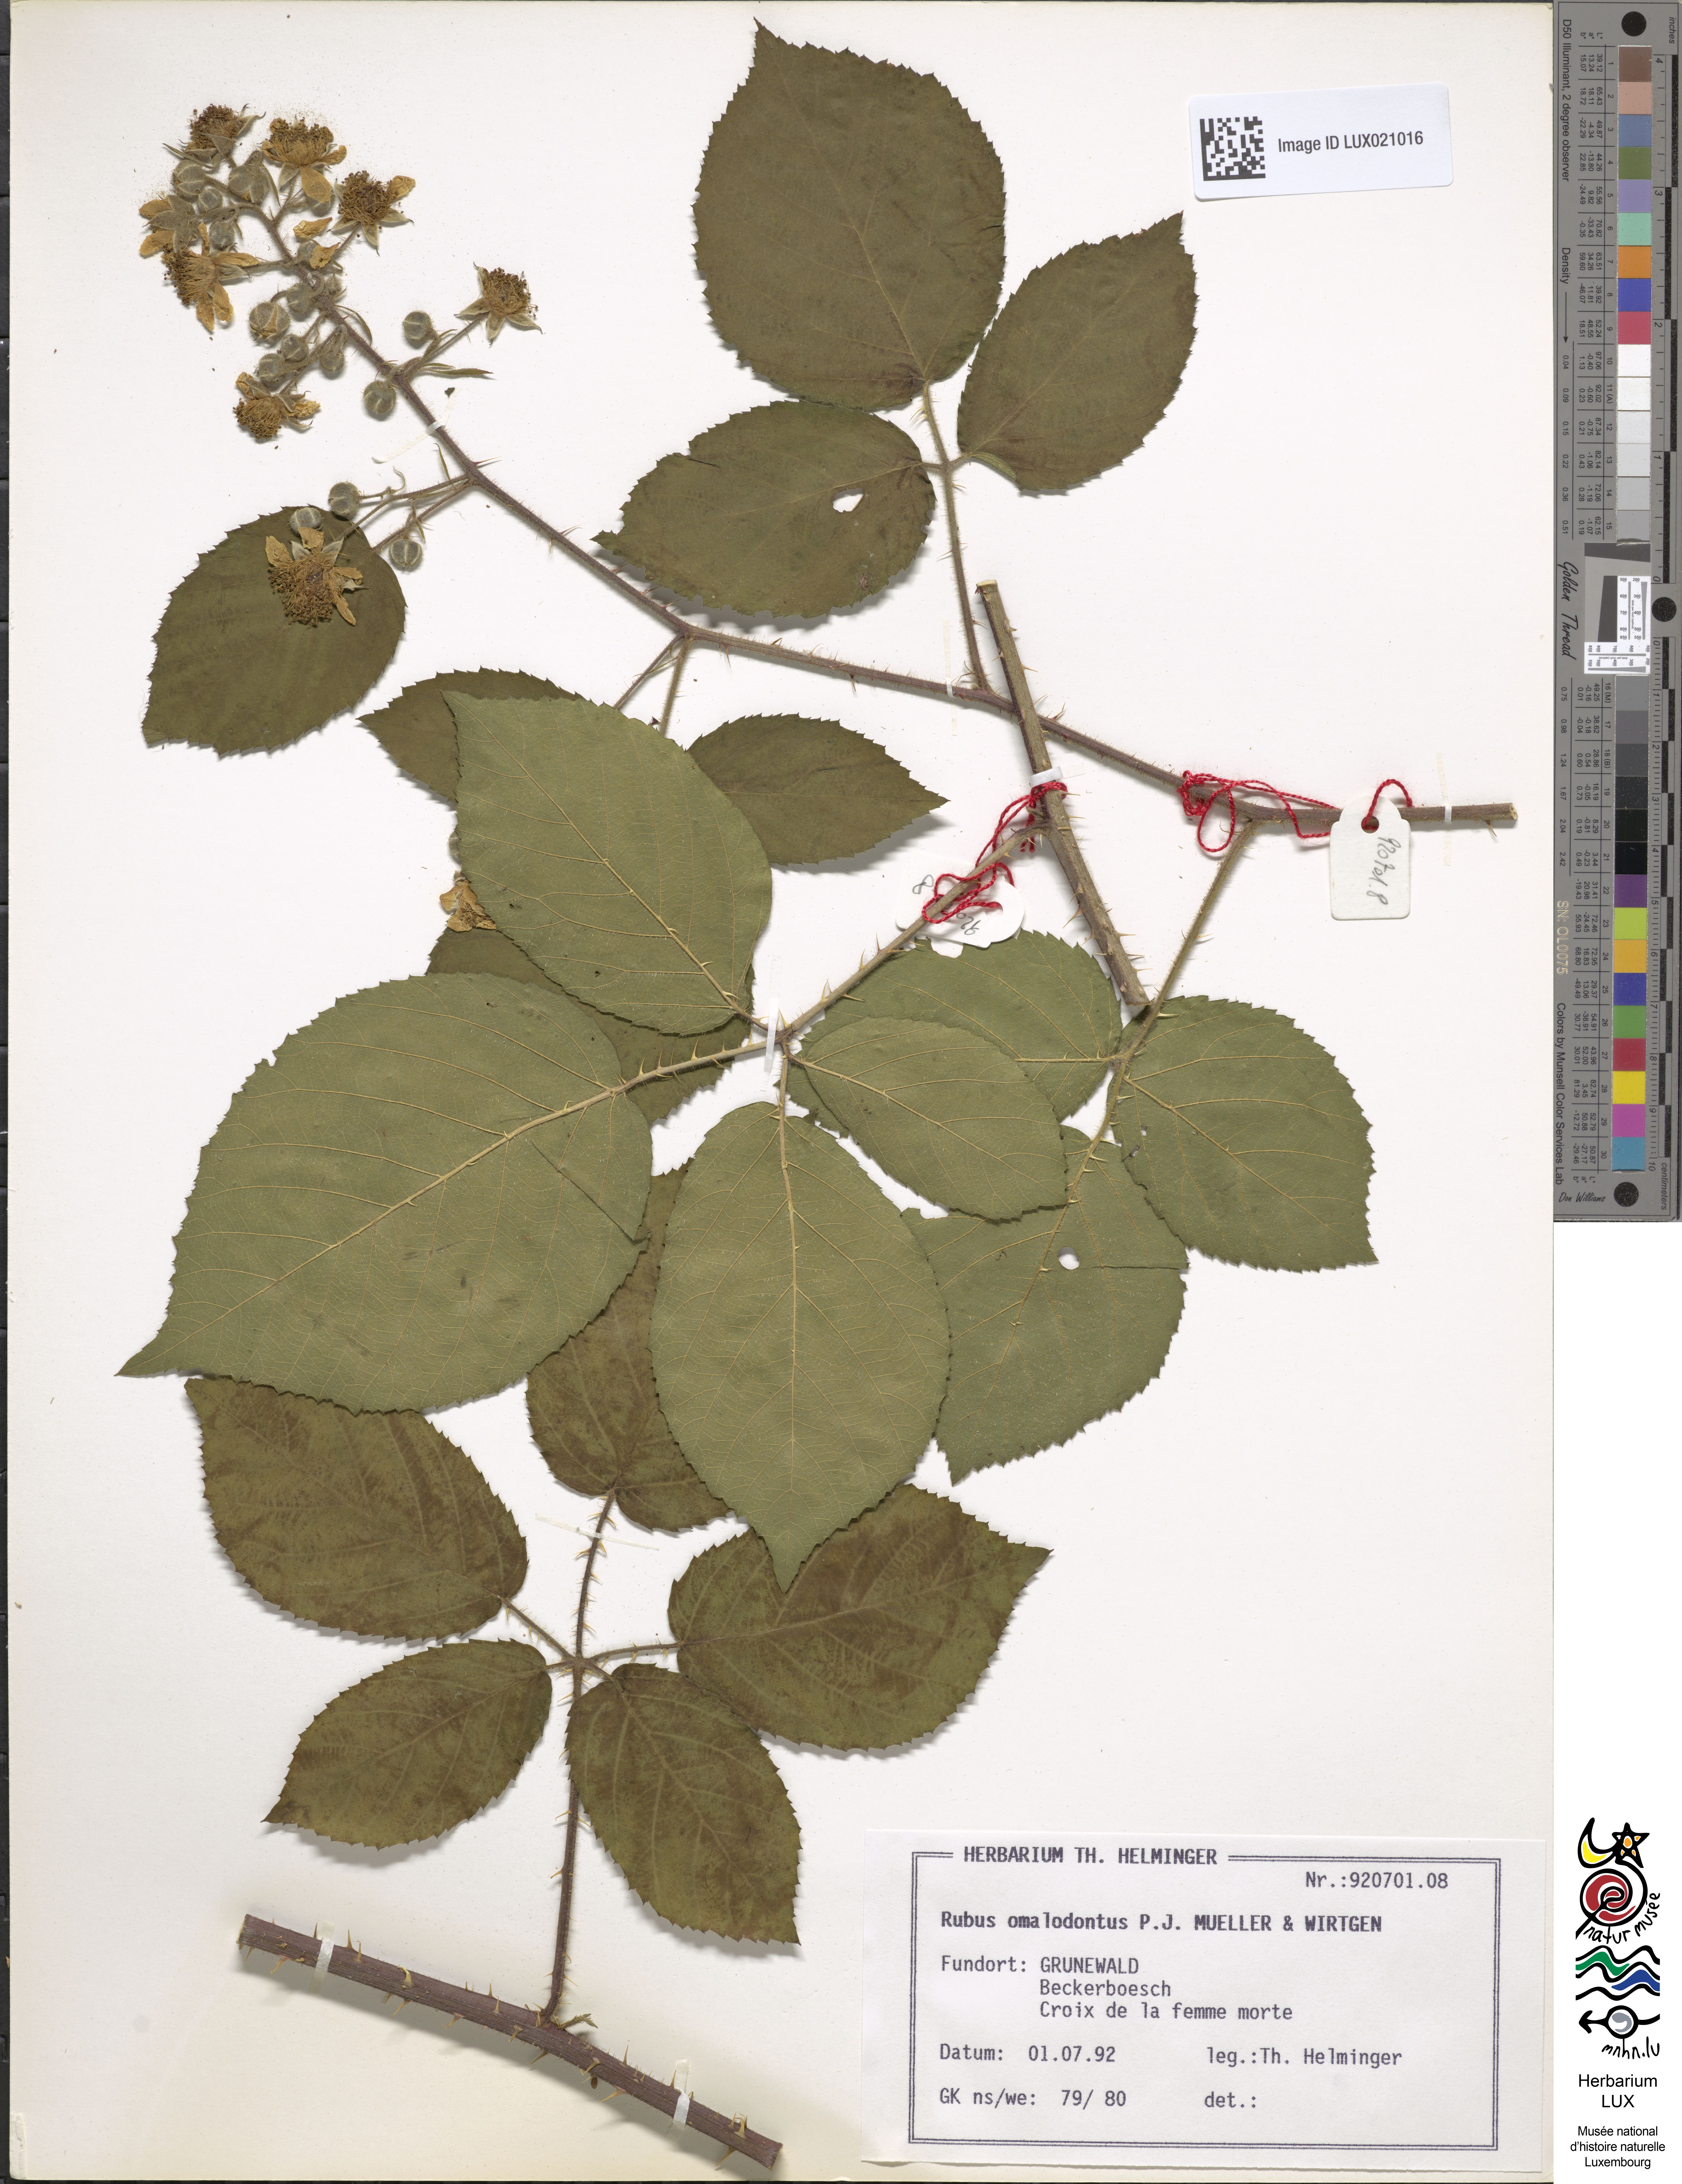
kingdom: Plantae
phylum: Tracheophyta
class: Magnoliopsida
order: Rosales
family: Rosaceae
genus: Rubus
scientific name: Rubus omalodontos
